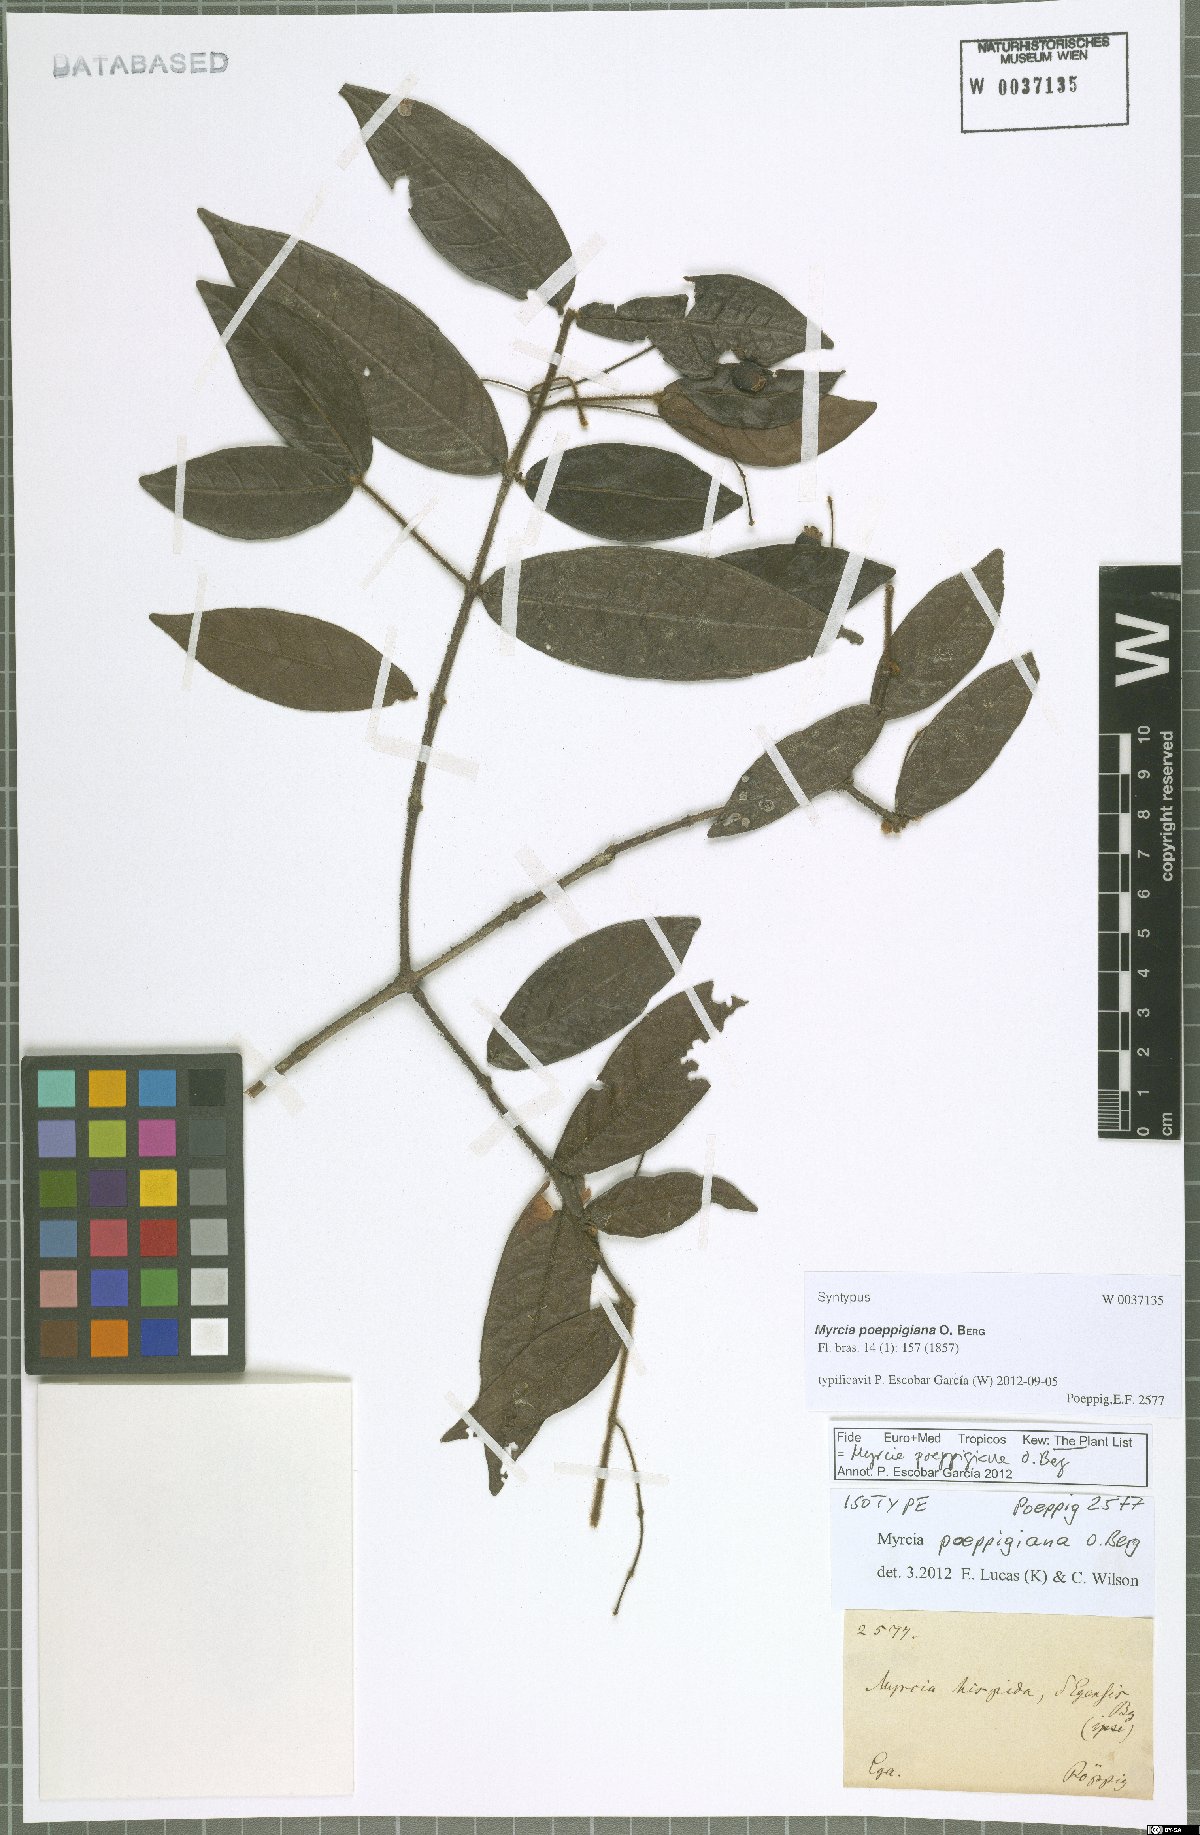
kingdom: Plantae
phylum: Tracheophyta
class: Magnoliopsida
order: Myrtales
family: Myrtaceae
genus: Myrcia
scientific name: Myrcia poeppigiana
